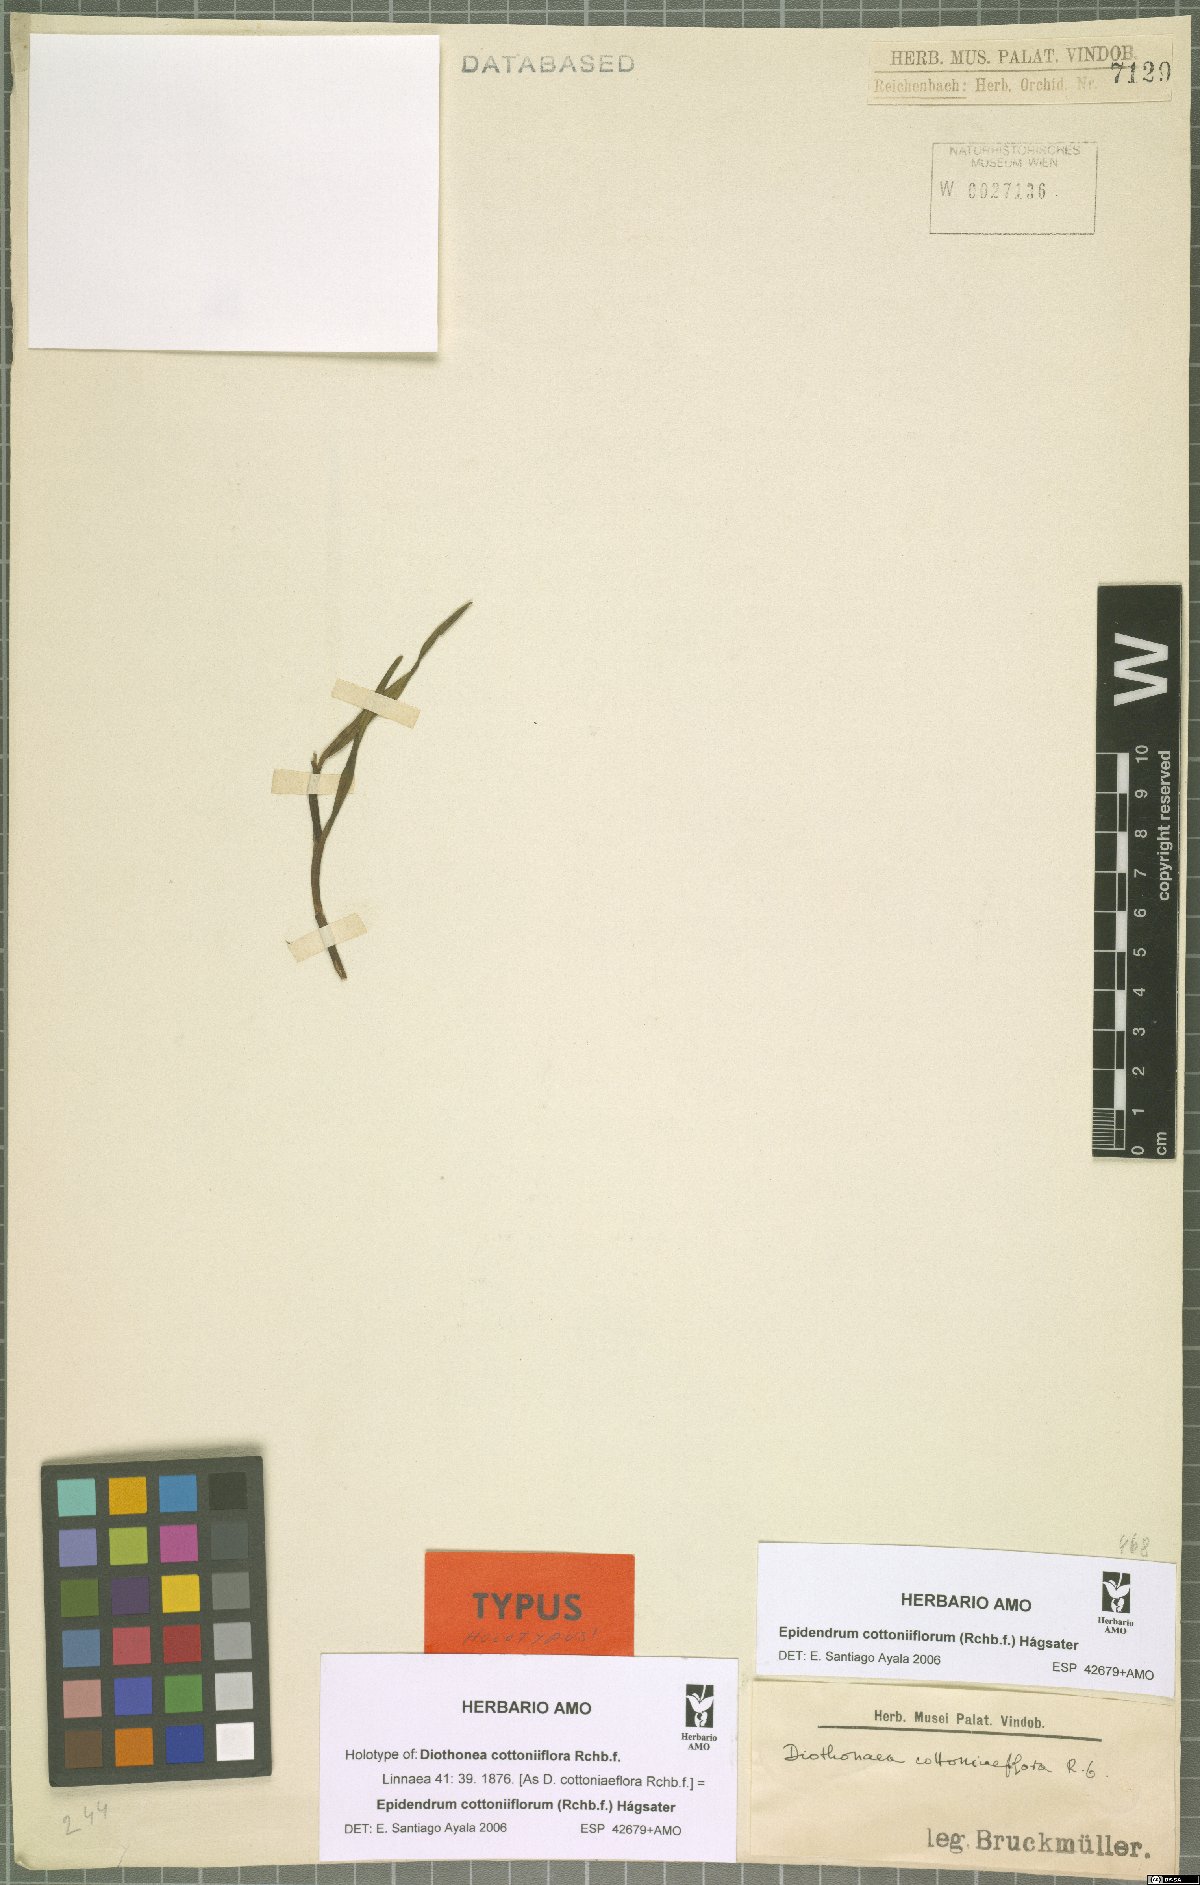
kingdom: Plantae
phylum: Tracheophyta
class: Liliopsida
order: Asparagales
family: Orchidaceae
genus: Epidendrum
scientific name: Epidendrum cottoniiflorum
